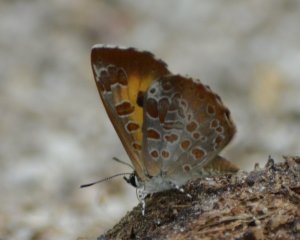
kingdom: Animalia
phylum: Arthropoda
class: Insecta
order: Lepidoptera
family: Lycaenidae
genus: Feniseca
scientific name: Feniseca tarquinius
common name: Harvester
